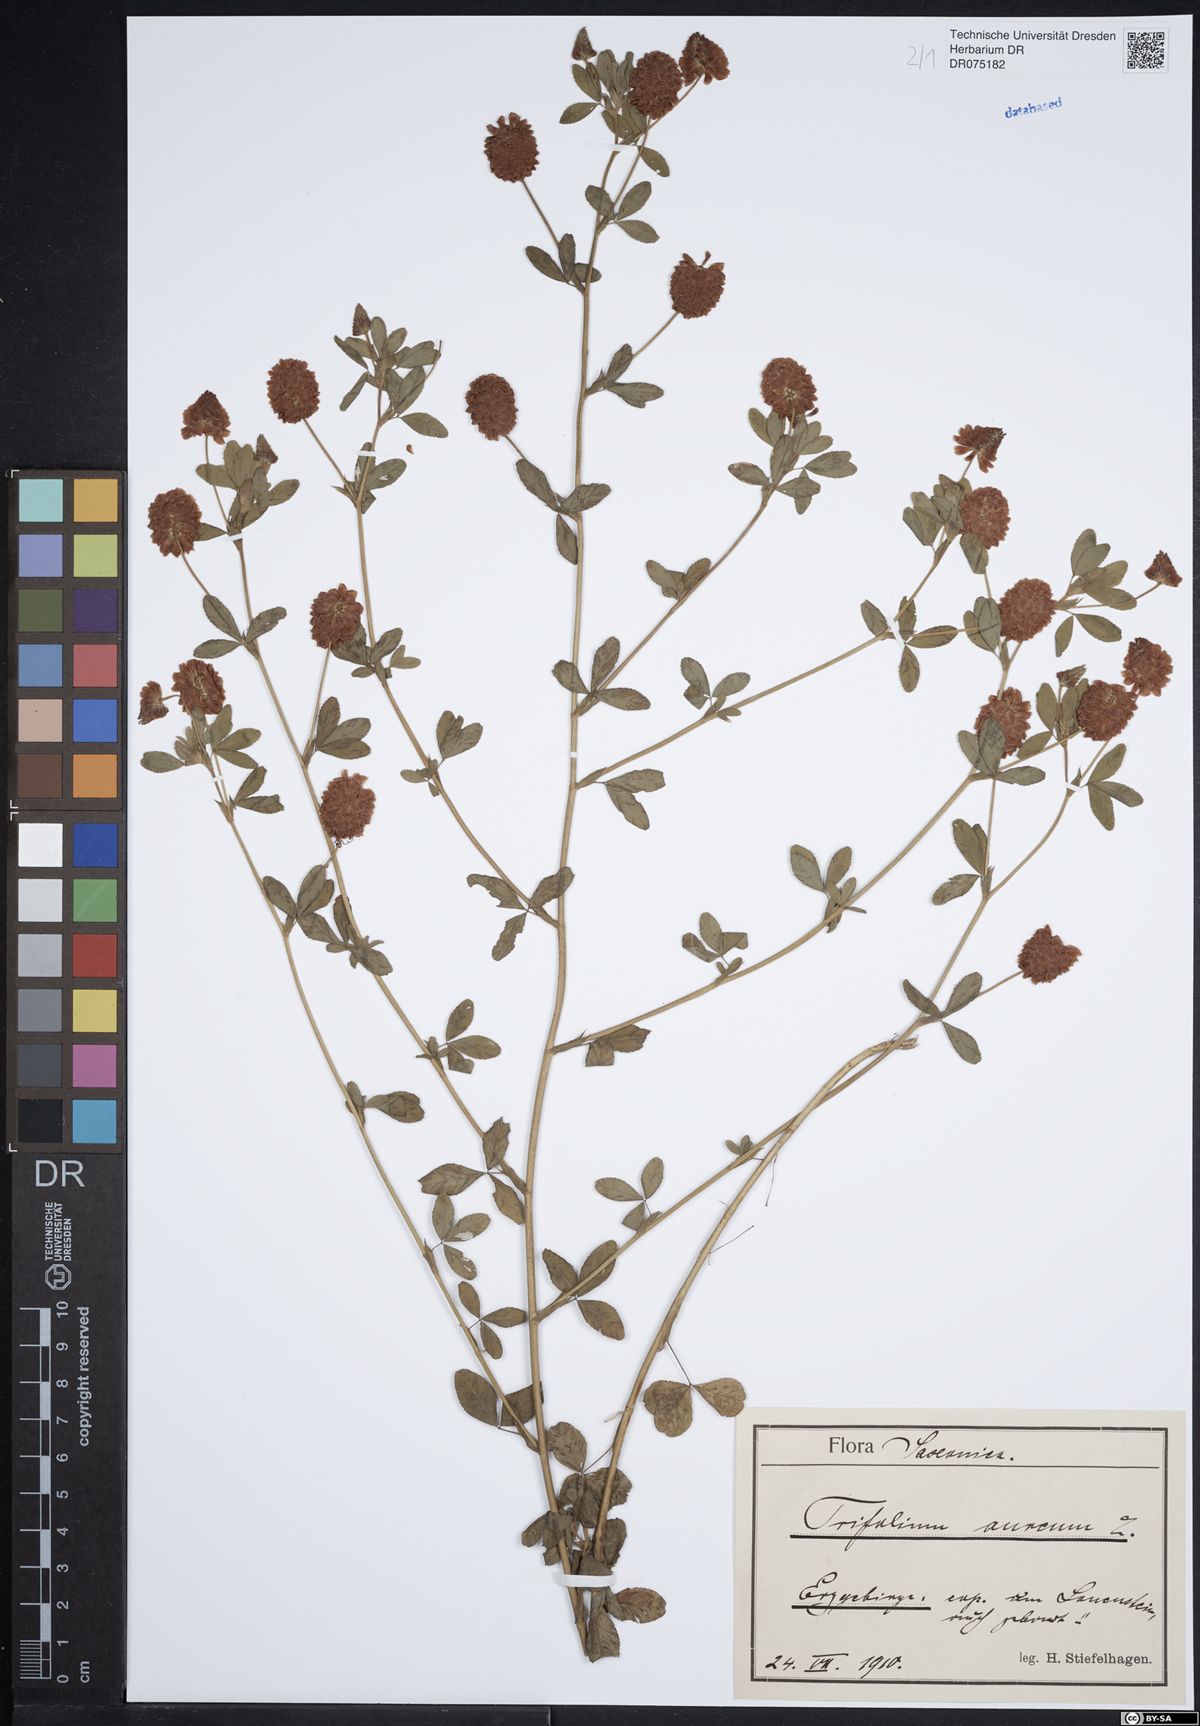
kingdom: Plantae
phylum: Tracheophyta
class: Magnoliopsida
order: Fabales
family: Fabaceae
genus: Trifolium
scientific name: Trifolium aureum
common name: Golden clover
